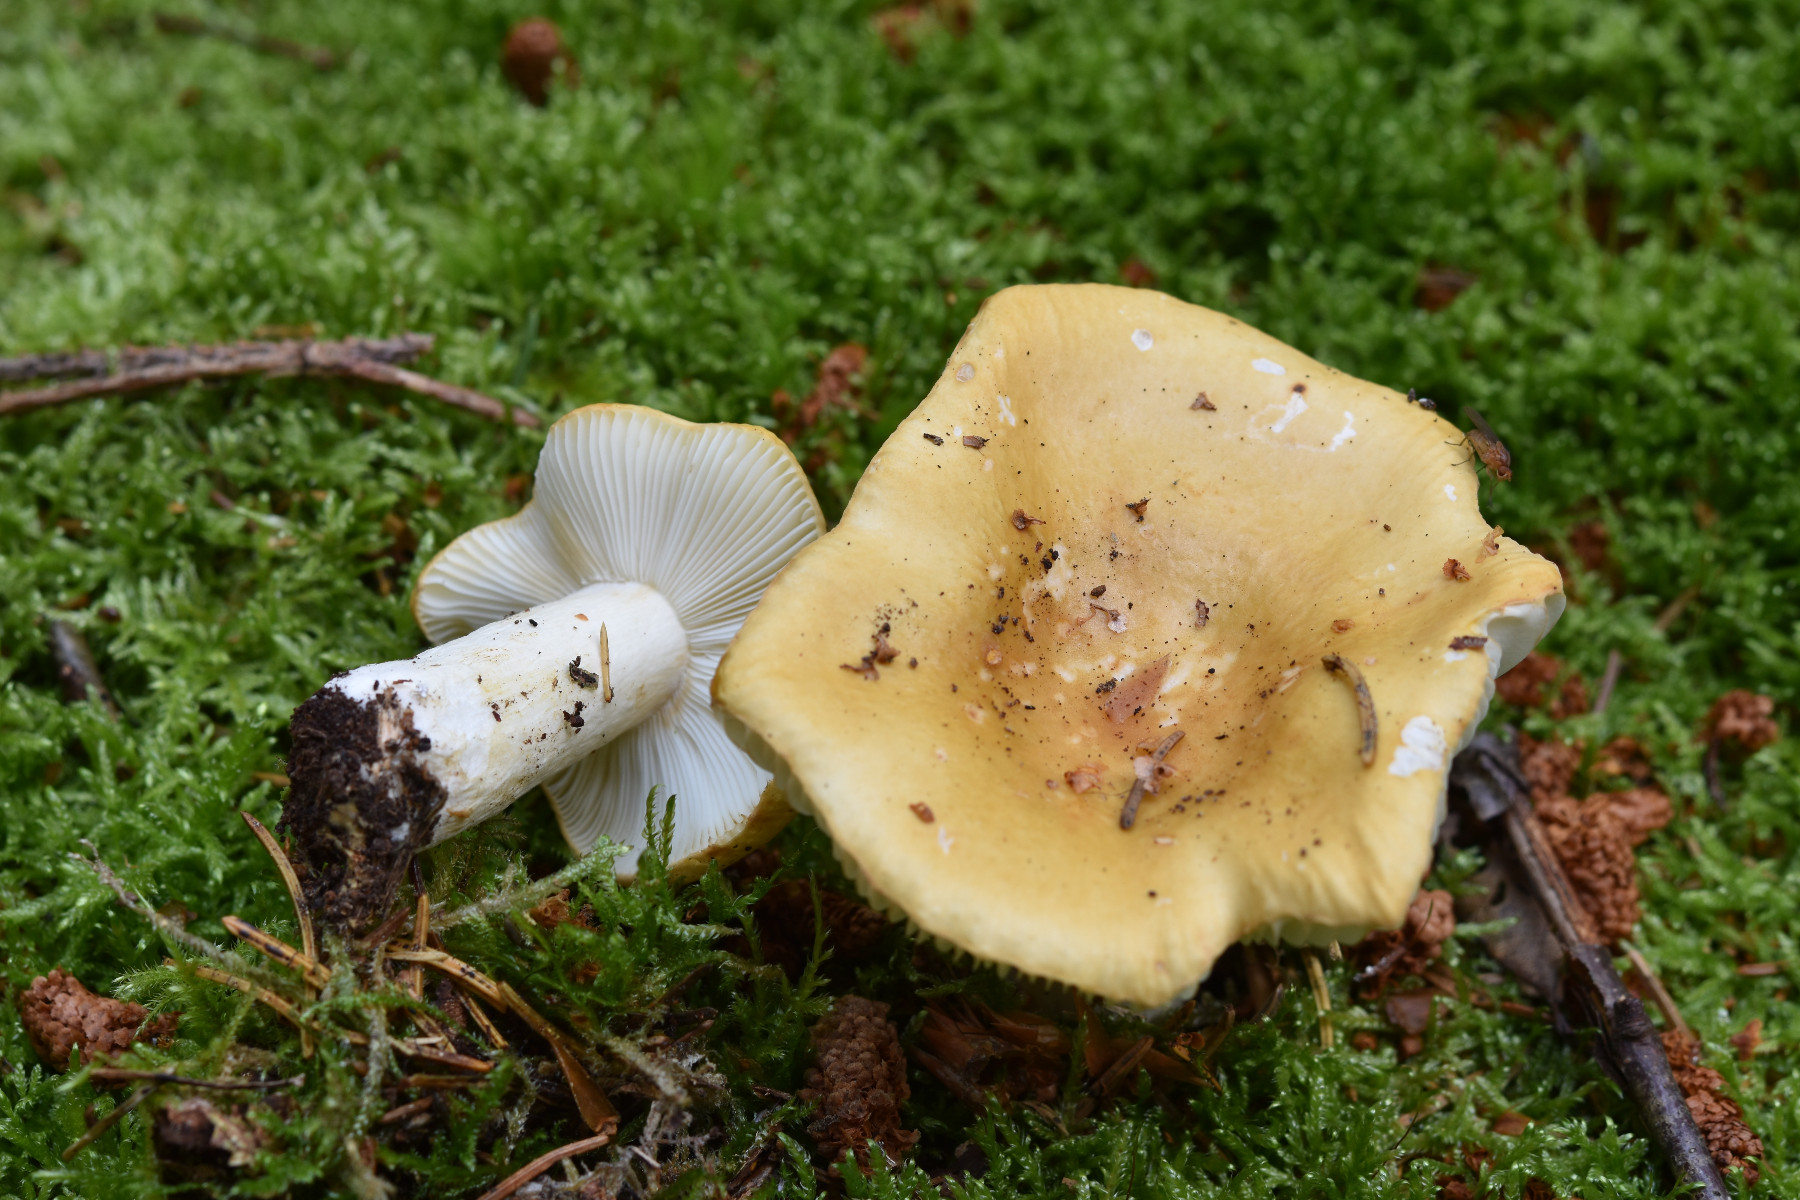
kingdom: Fungi
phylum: Basidiomycota
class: Agaricomycetes
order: Russulales
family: Russulaceae
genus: Russula
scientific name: Russula ochroleuca
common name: okkergul skørhat
